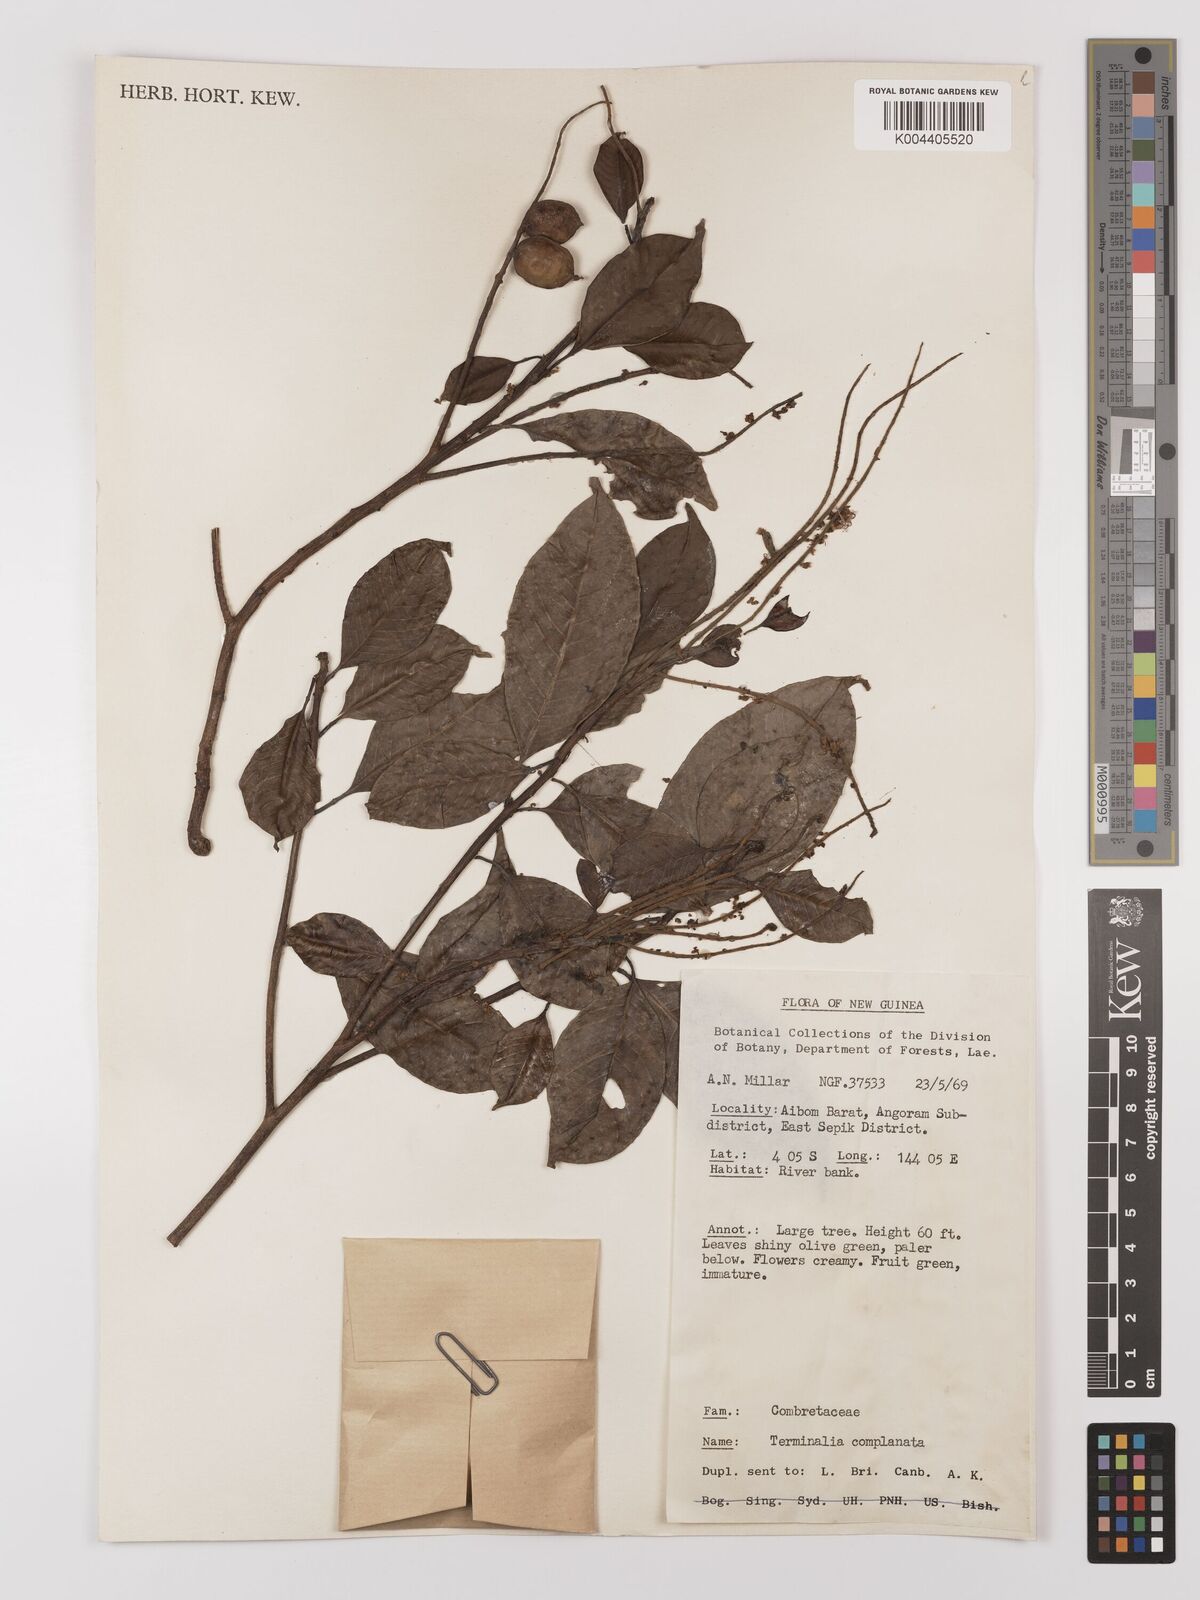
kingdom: Plantae
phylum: Tracheophyta
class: Magnoliopsida
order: Myrtales
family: Combretaceae
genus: Terminalia
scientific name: Terminalia complanata
